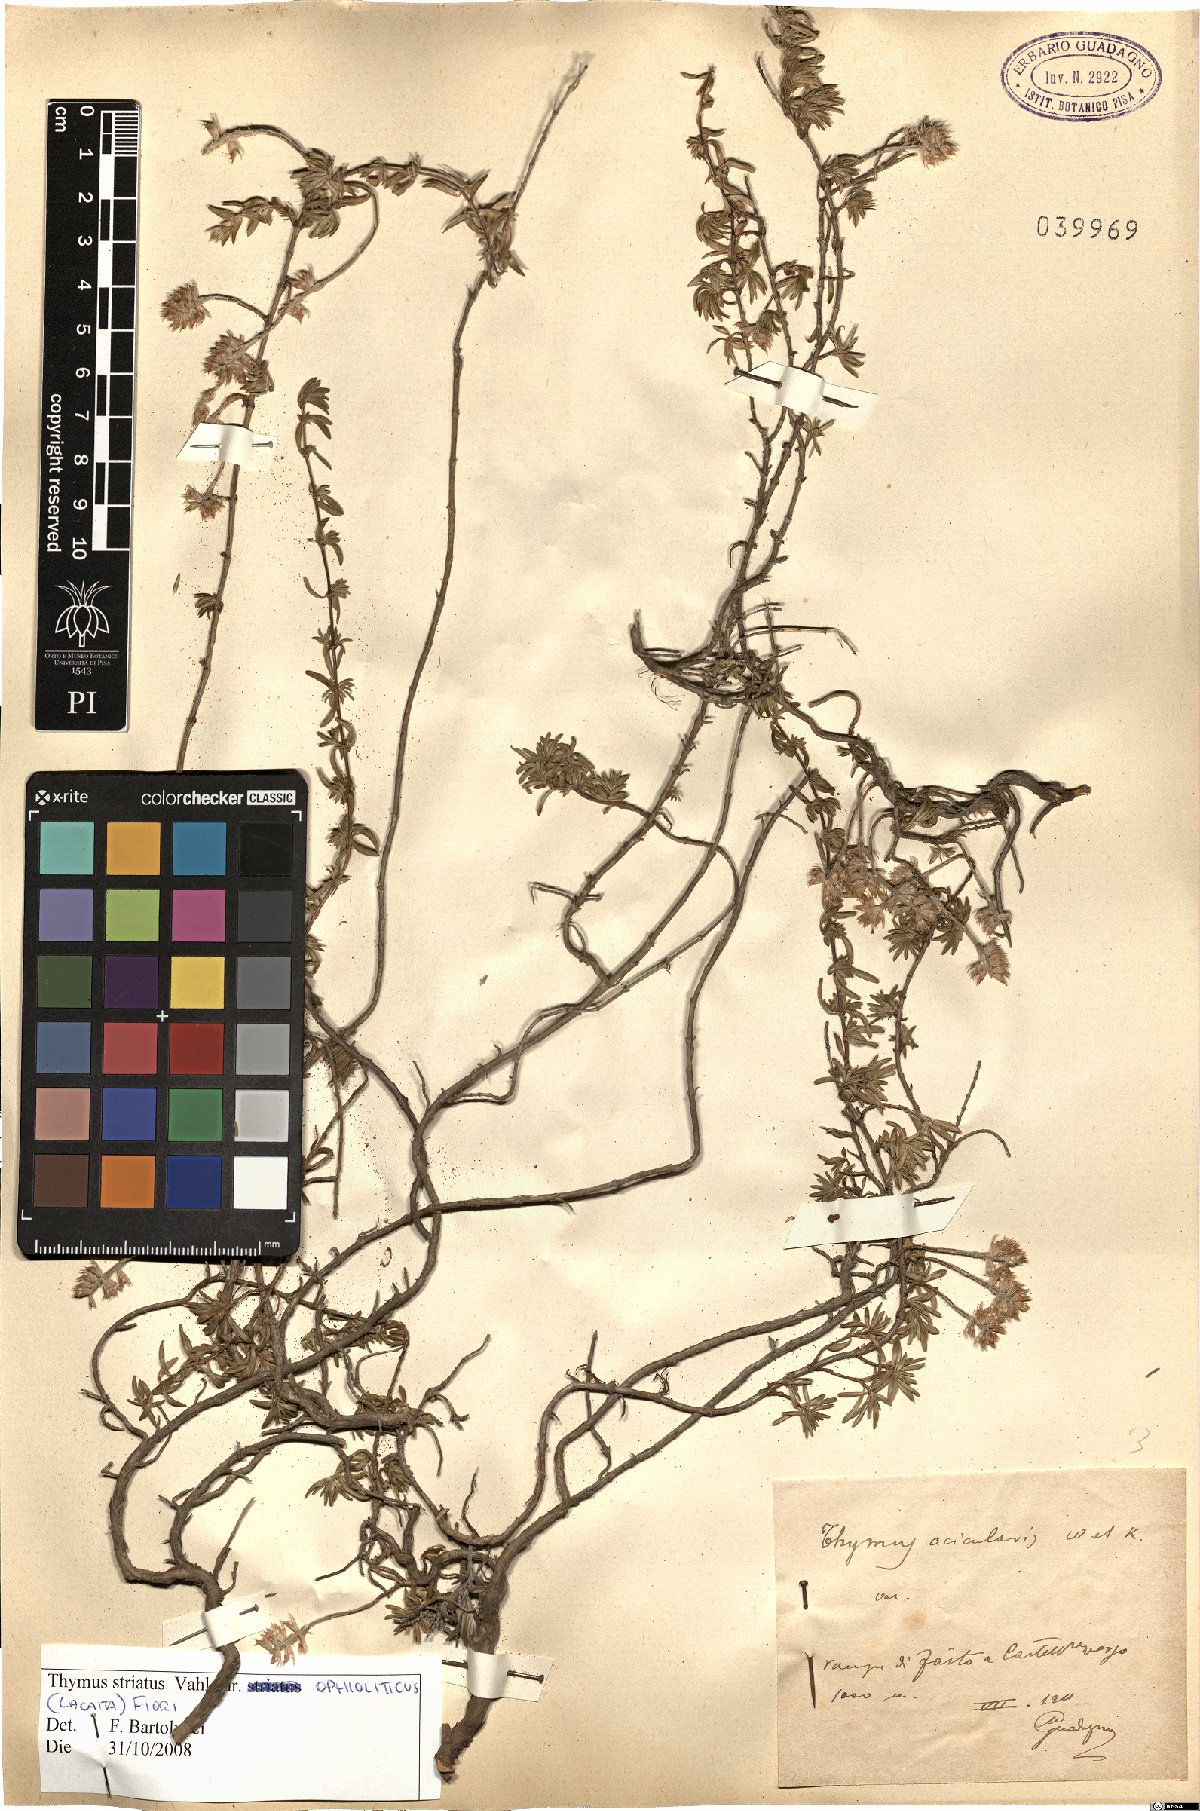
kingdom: Plantae
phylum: Tracheophyta
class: Magnoliopsida
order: Lamiales
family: Lamiaceae
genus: Thymus
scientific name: Thymus striatus
